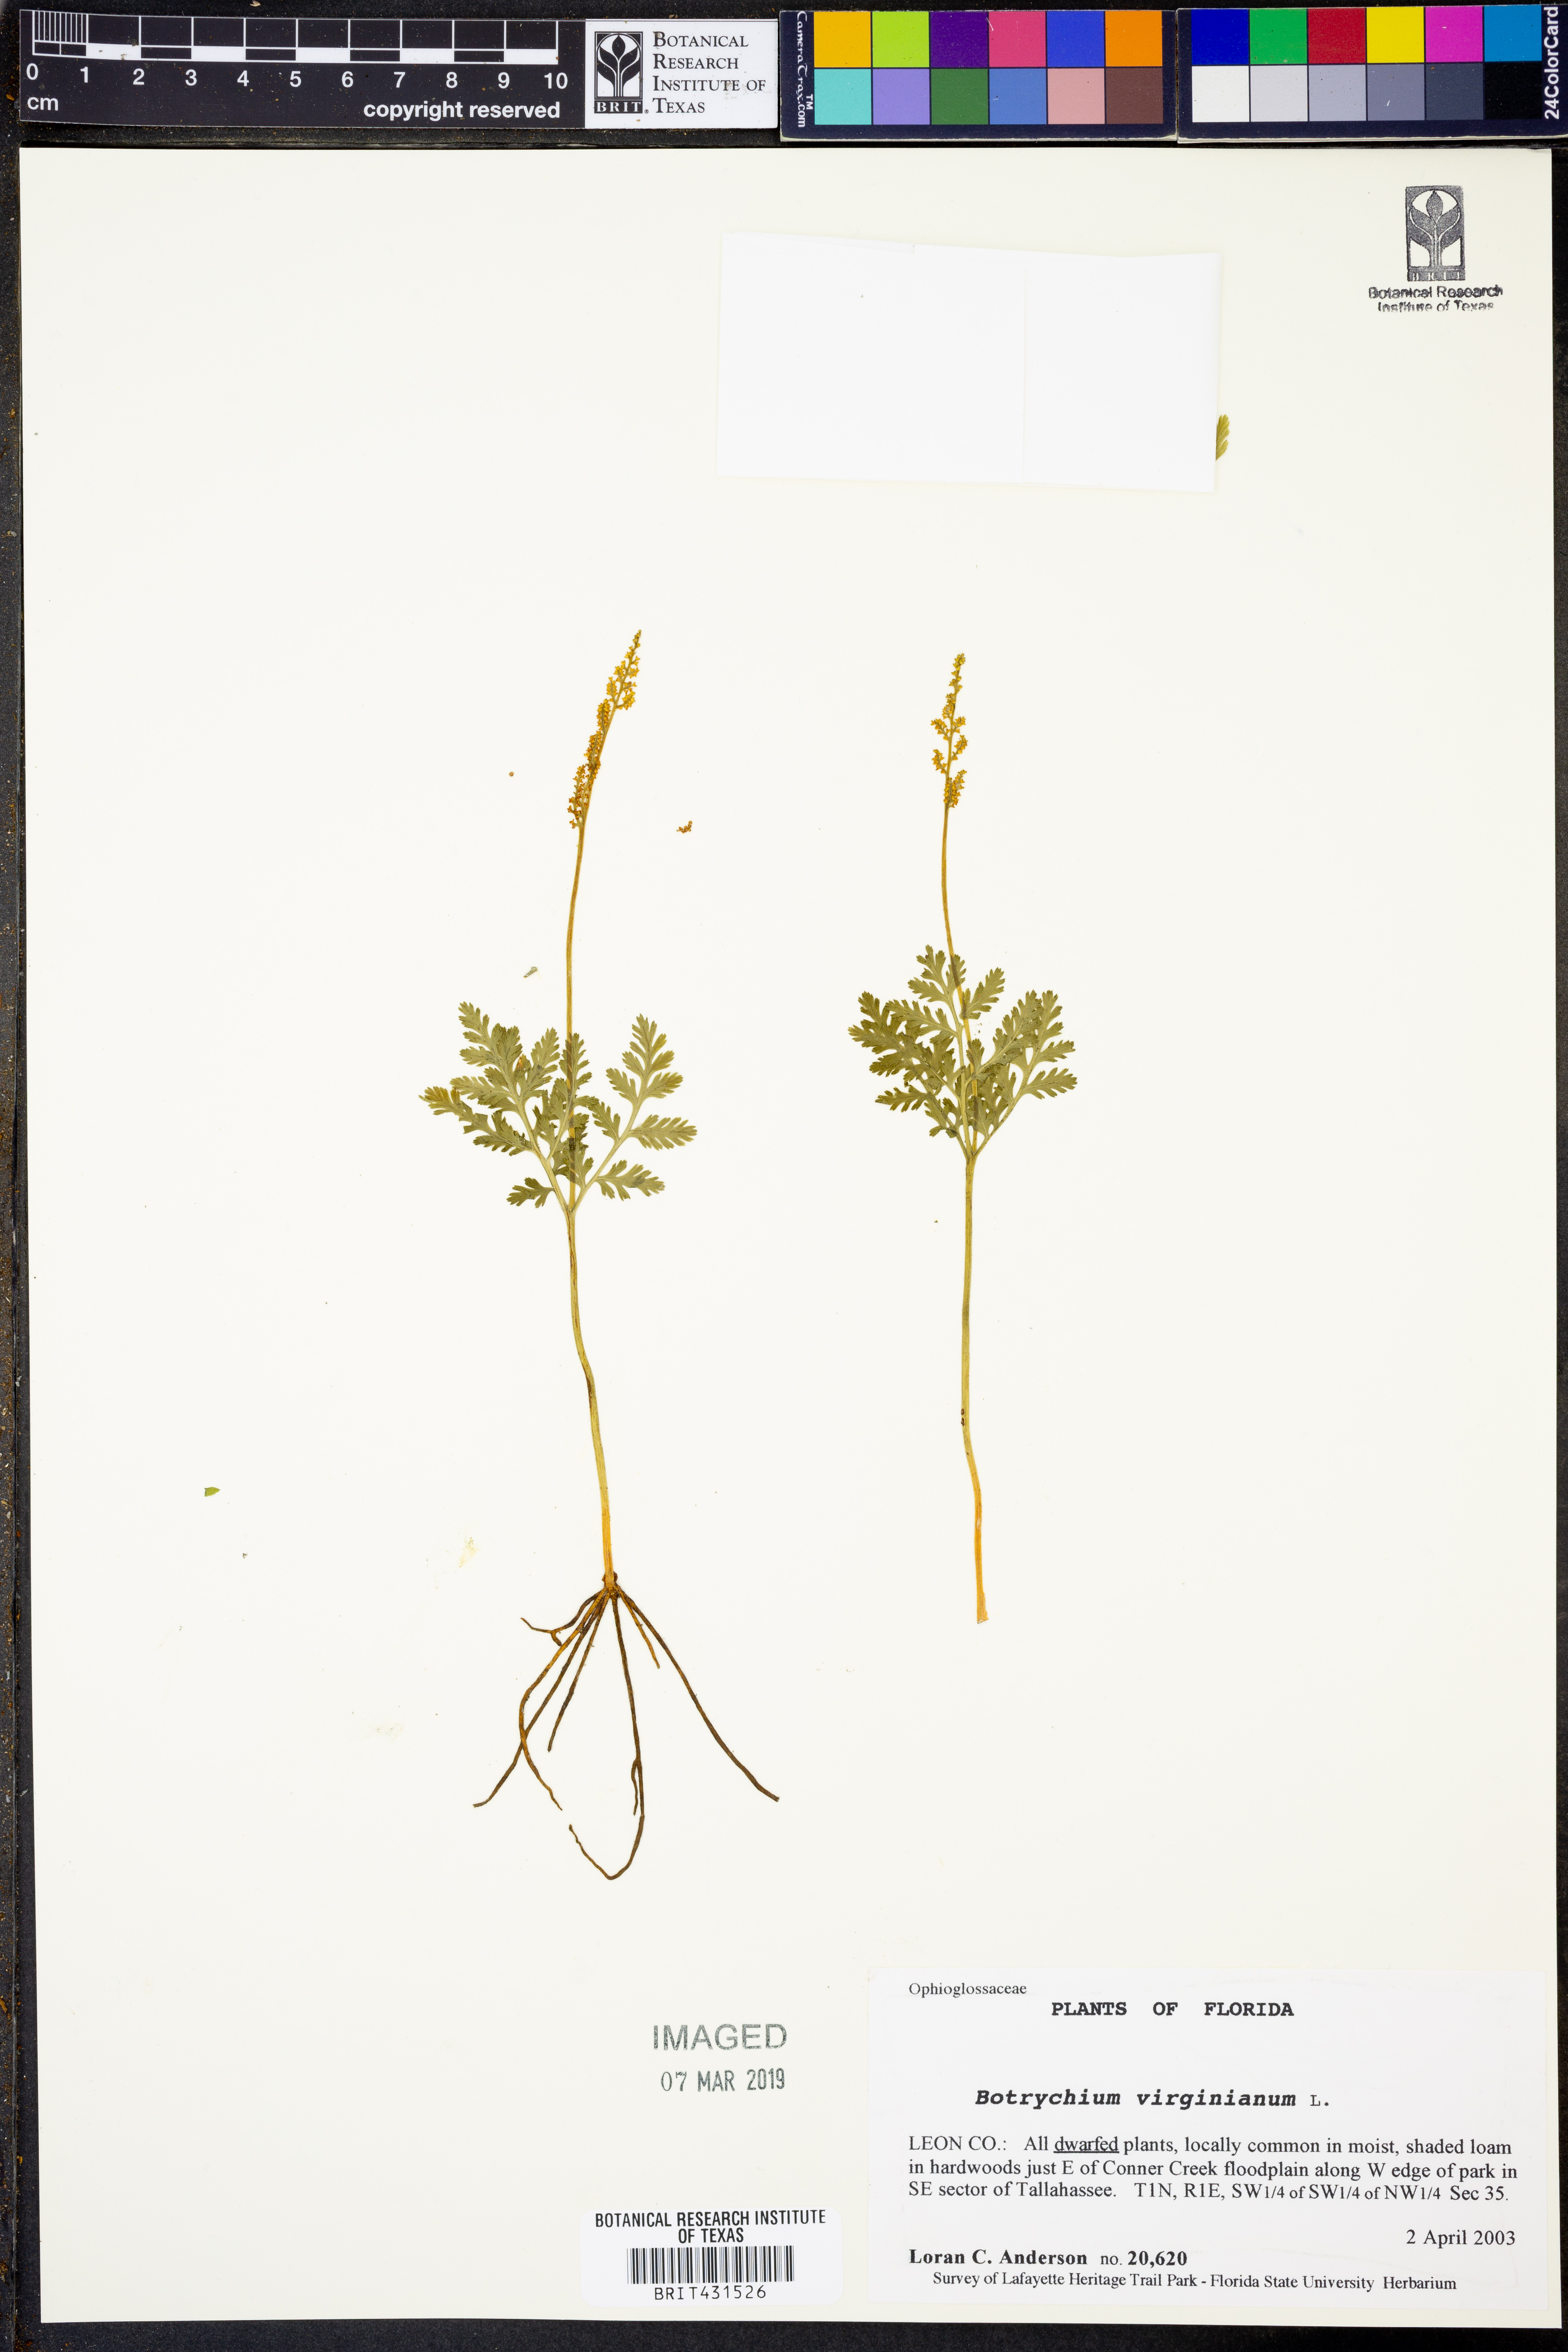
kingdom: Plantae
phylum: Tracheophyta
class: Polypodiopsida
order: Ophioglossales
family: Ophioglossaceae
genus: Botrypus
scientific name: Botrypus virginianus
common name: Common grapefern
